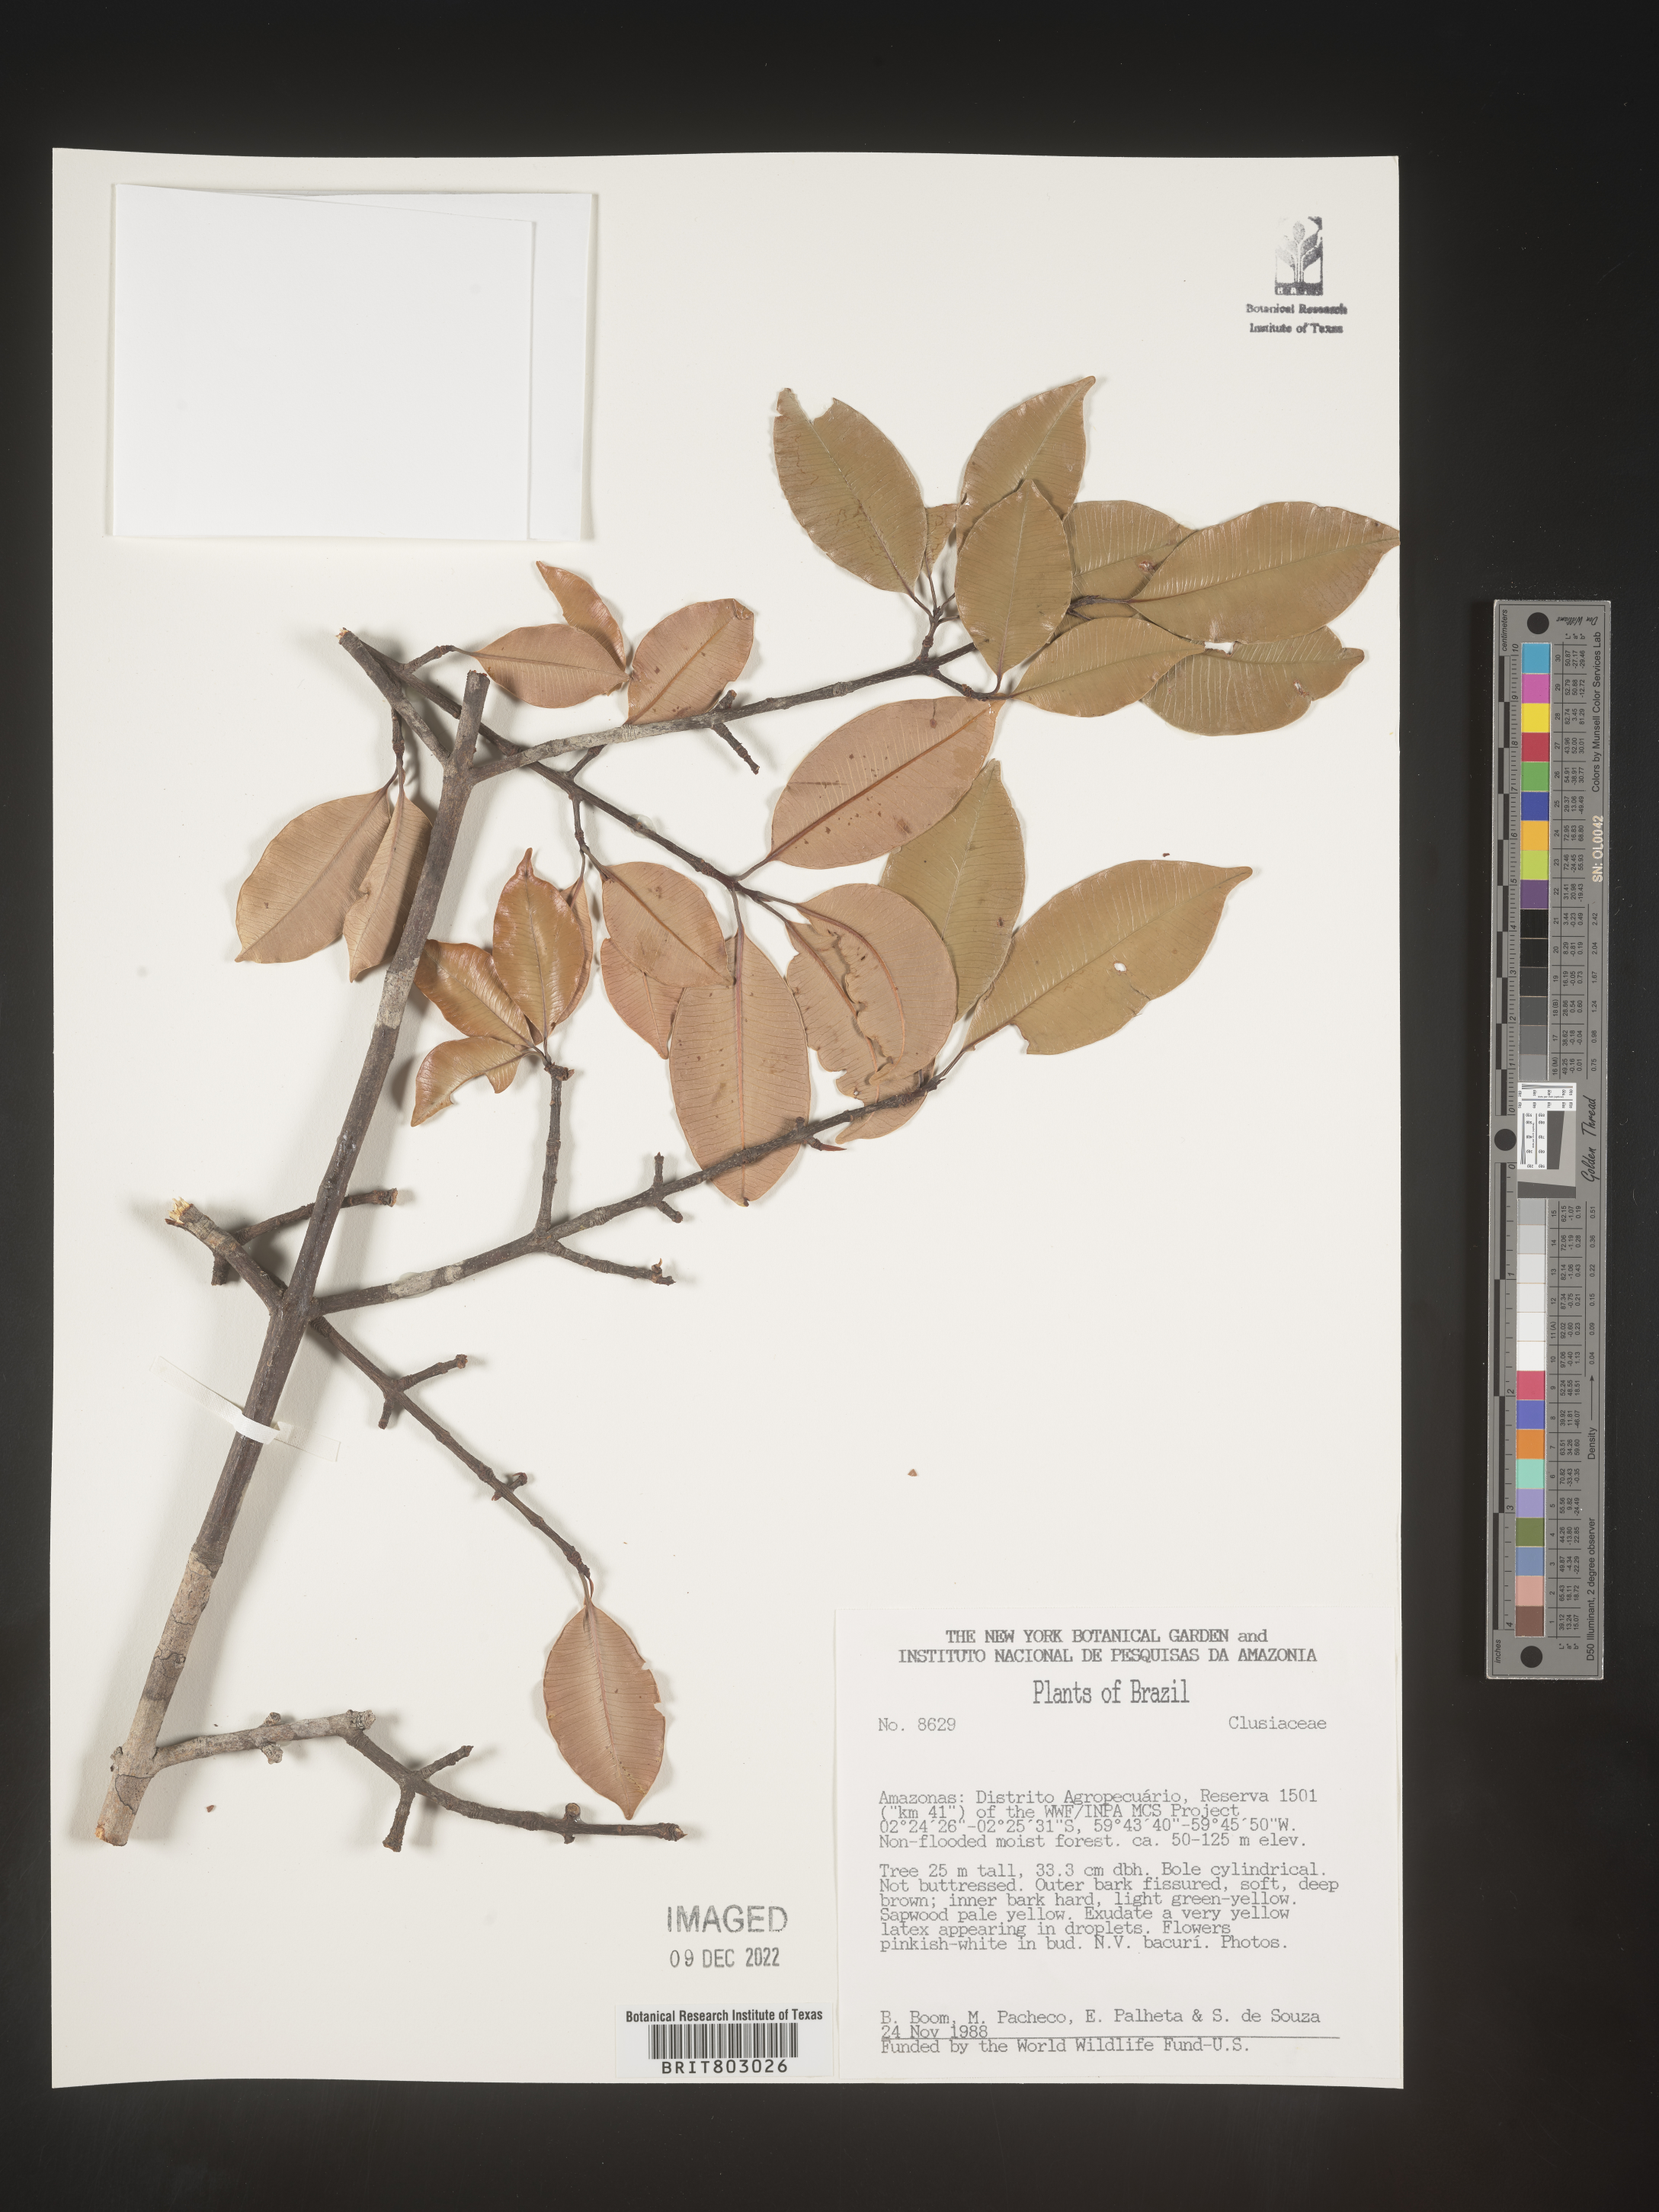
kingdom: Plantae
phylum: Tracheophyta
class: Magnoliopsida
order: Malpighiales
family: Clusiaceae
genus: Moronobea
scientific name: Moronobea
